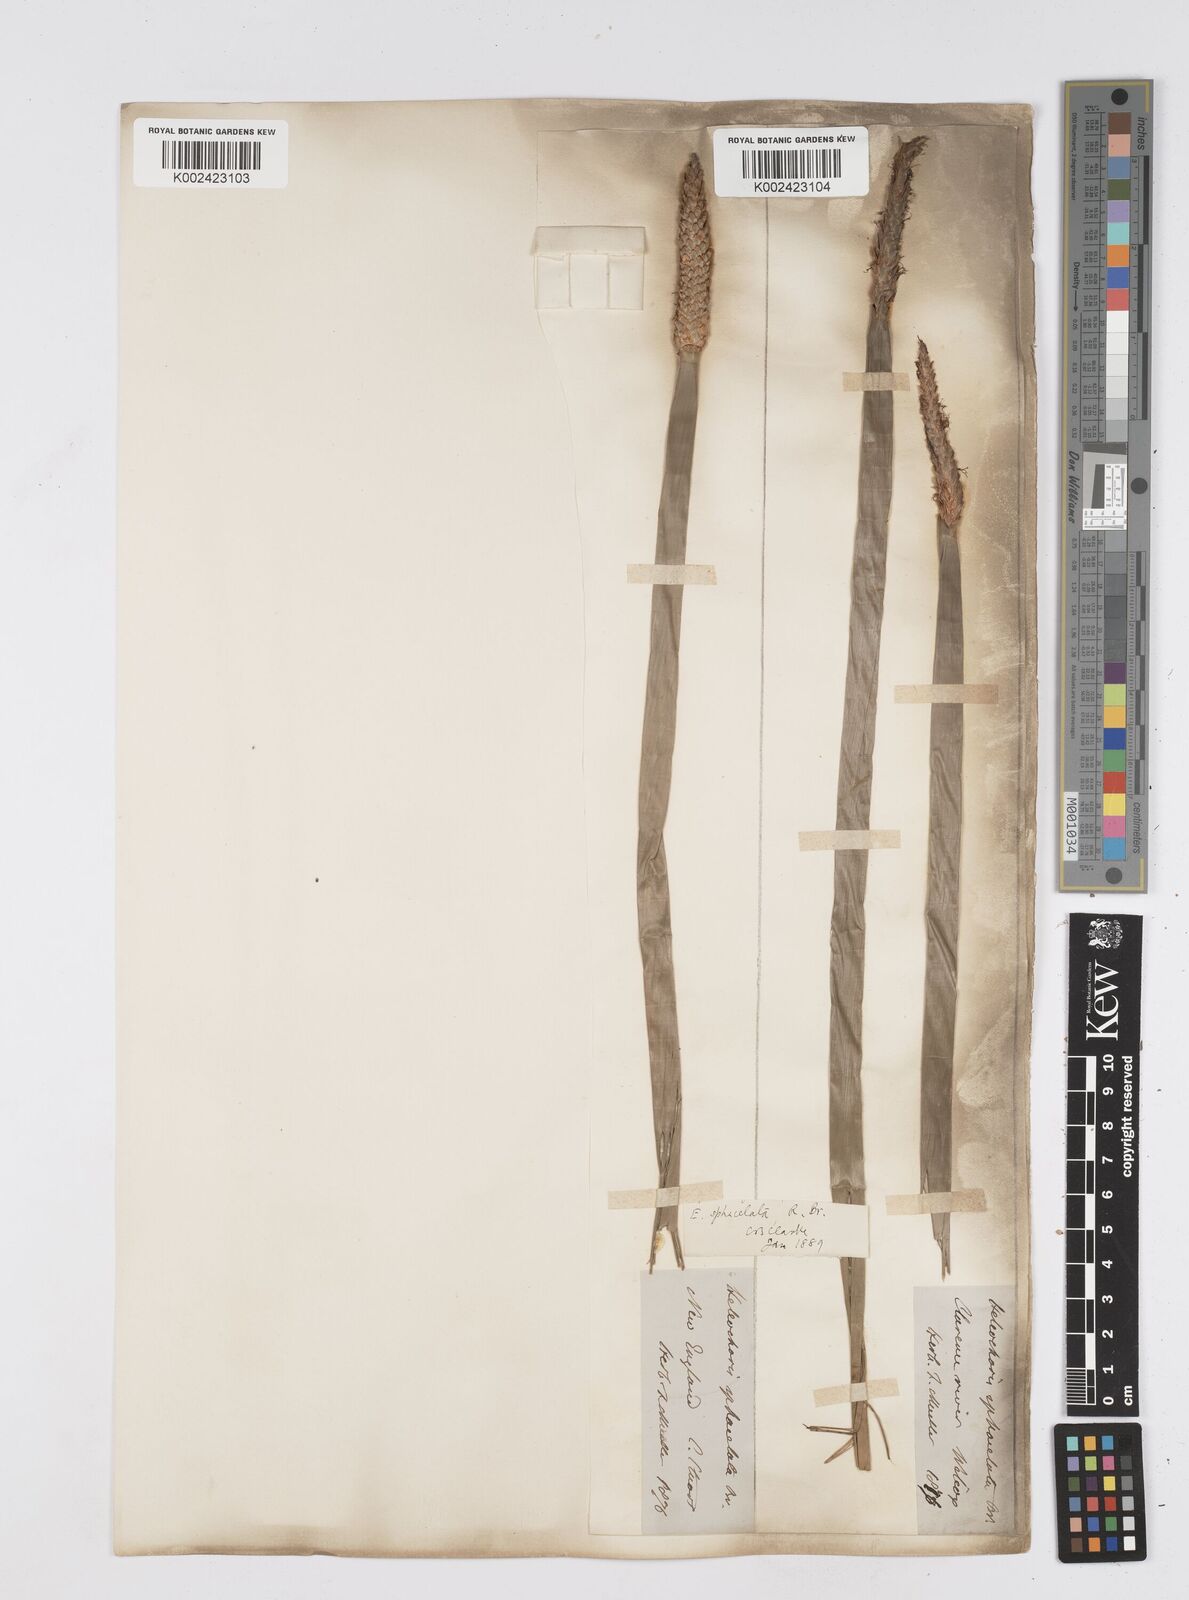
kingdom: Plantae
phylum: Tracheophyta
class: Liliopsida
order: Poales
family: Cyperaceae
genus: Eleocharis
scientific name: Eleocharis sphacelata
